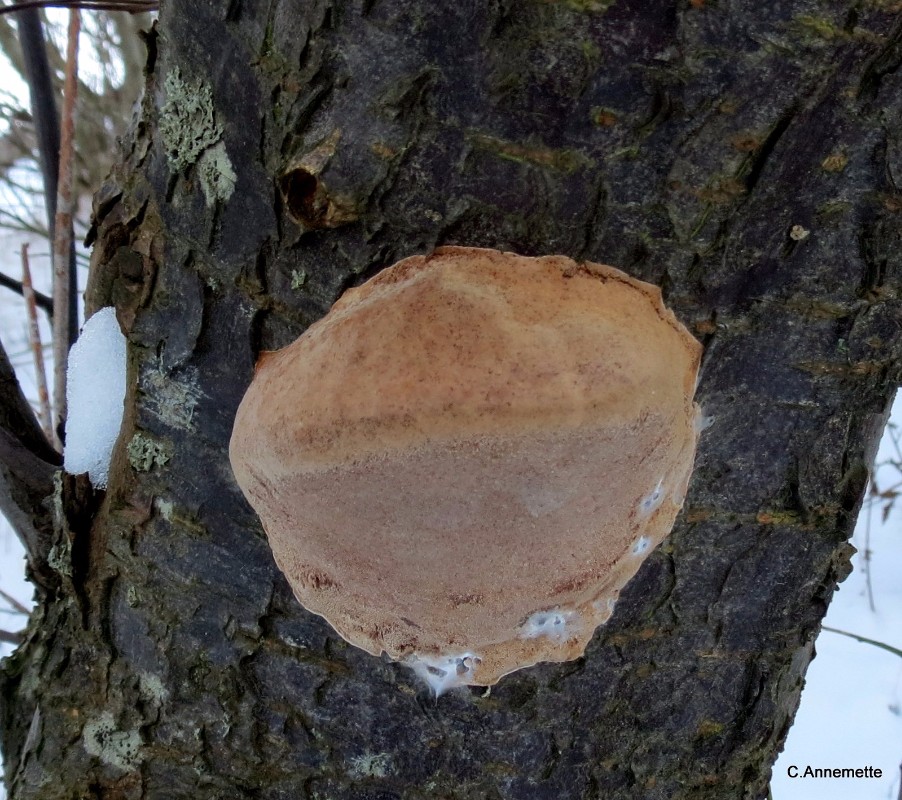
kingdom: Fungi
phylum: Basidiomycota
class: Agaricomycetes
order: Hymenochaetales
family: Hymenochaetaceae
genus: Phellinus
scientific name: Phellinus pomaceus
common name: blomme-ildporesvamp
